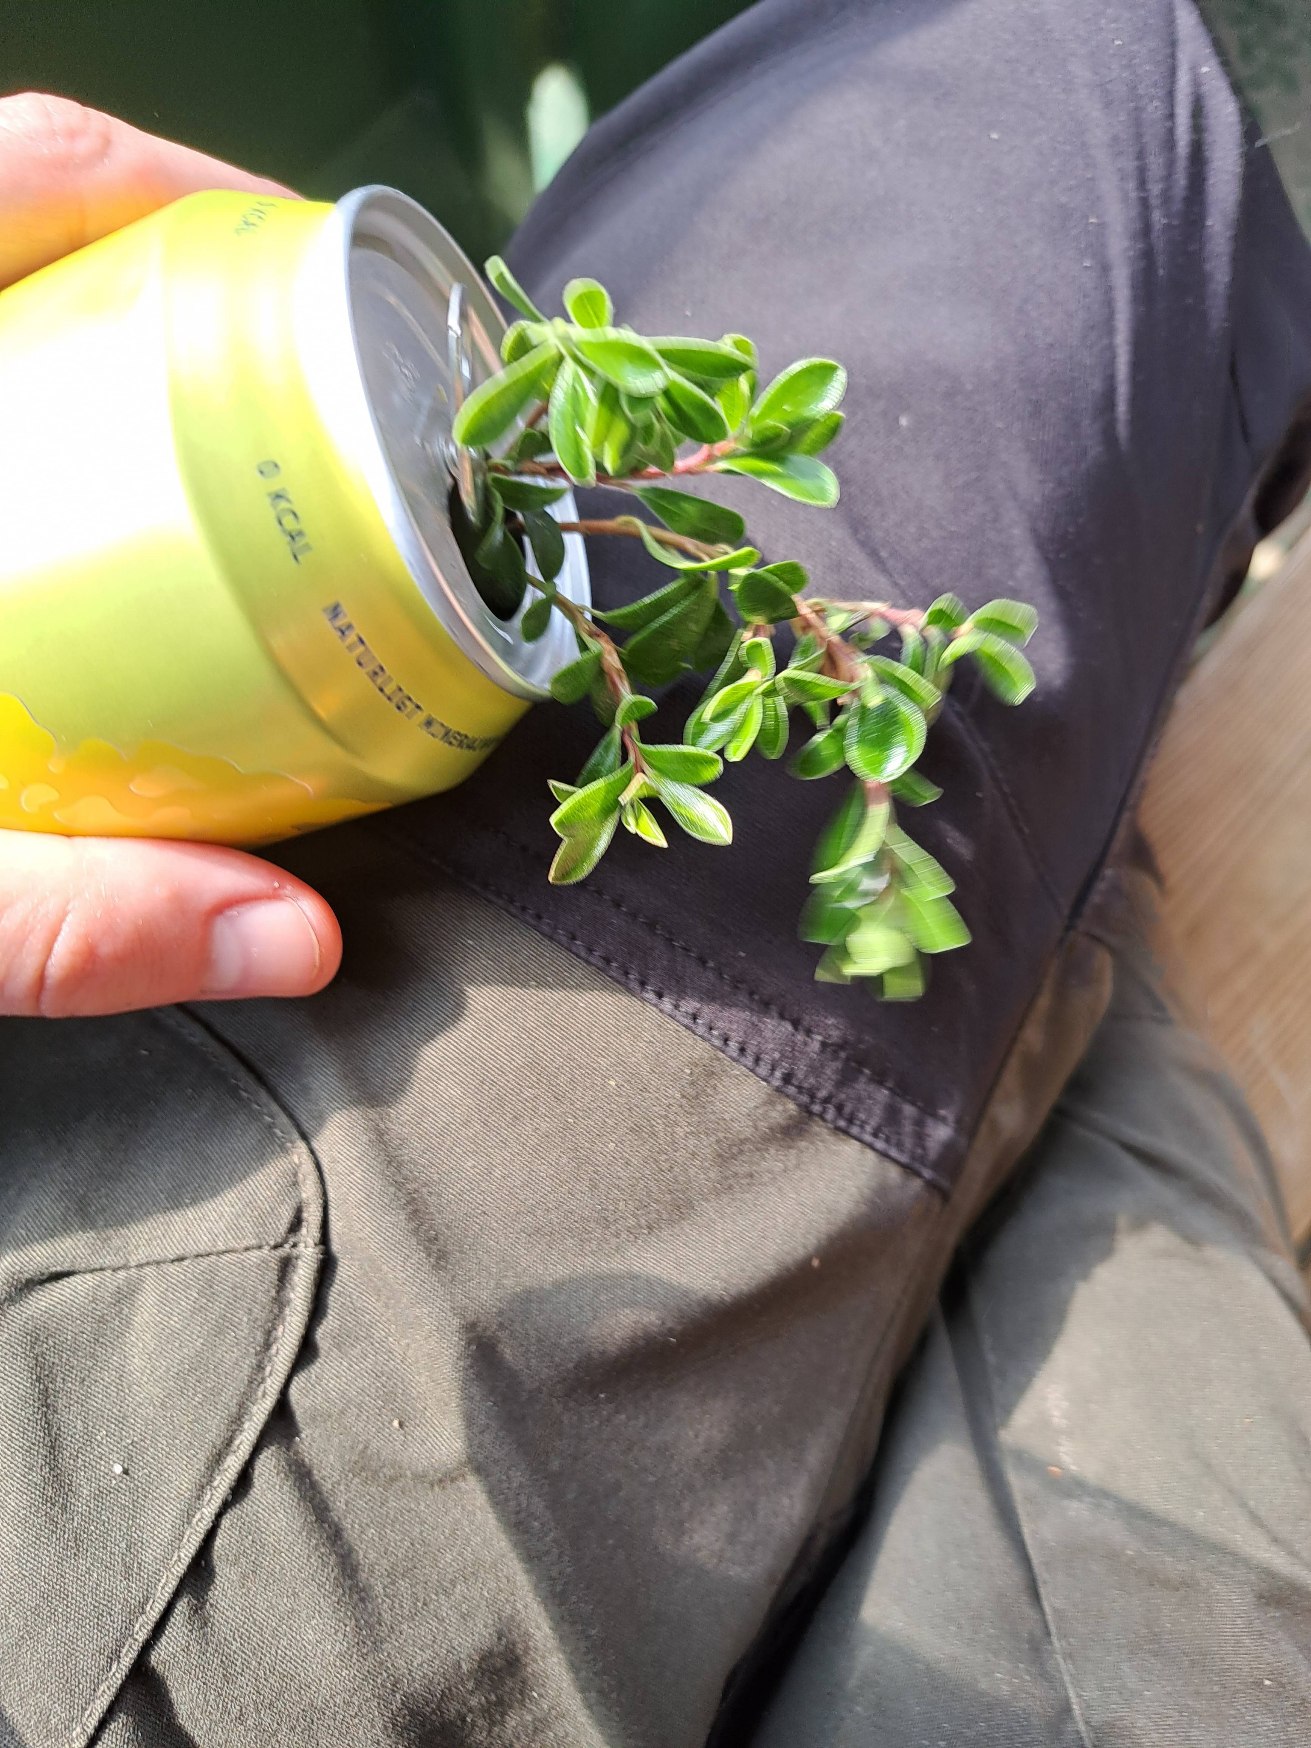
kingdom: Plantae
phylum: Tracheophyta
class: Magnoliopsida
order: Ericales
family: Ericaceae
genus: Arctostaphylos
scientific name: Arctostaphylos uva-ursi
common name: Hede-melbærris
